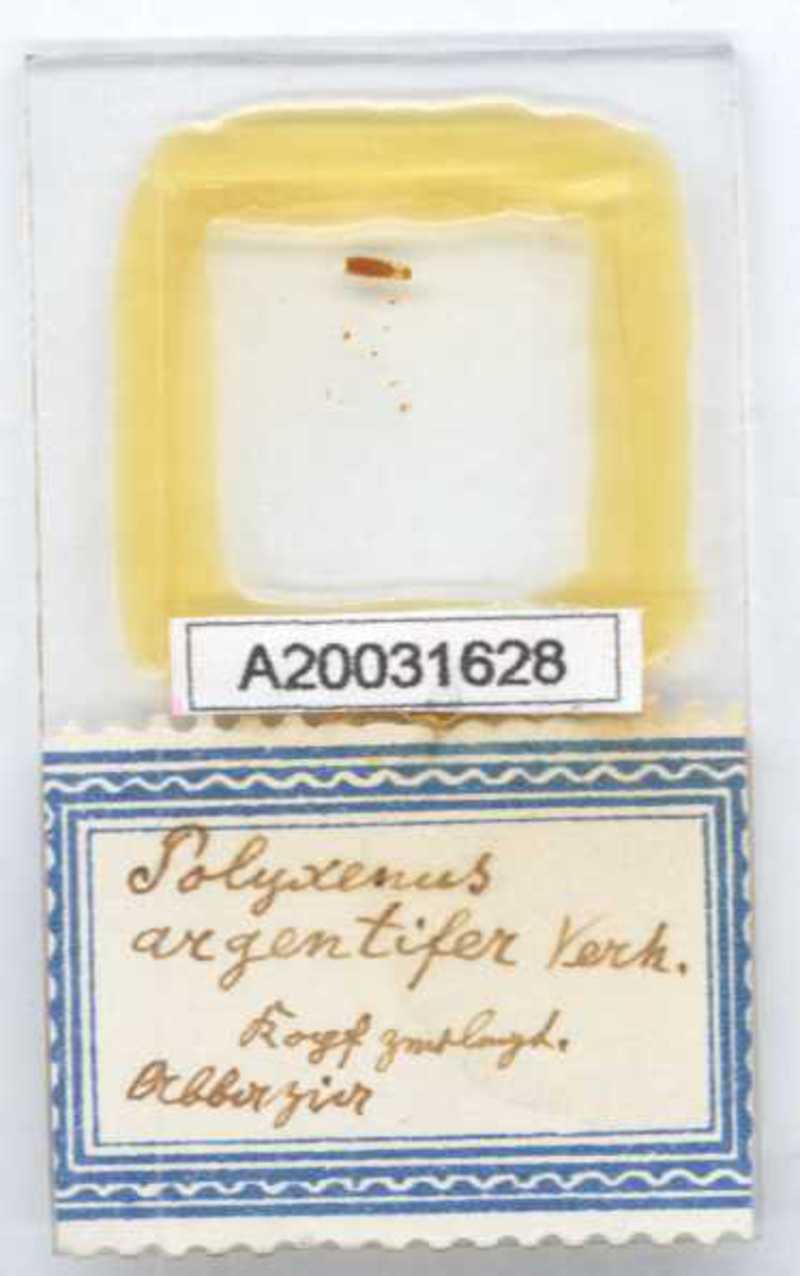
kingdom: Animalia
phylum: Arthropoda
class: Diplopoda
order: Polyxenida
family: Polyxenidae
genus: Propolyxenus
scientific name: Propolyxenus argentifer
